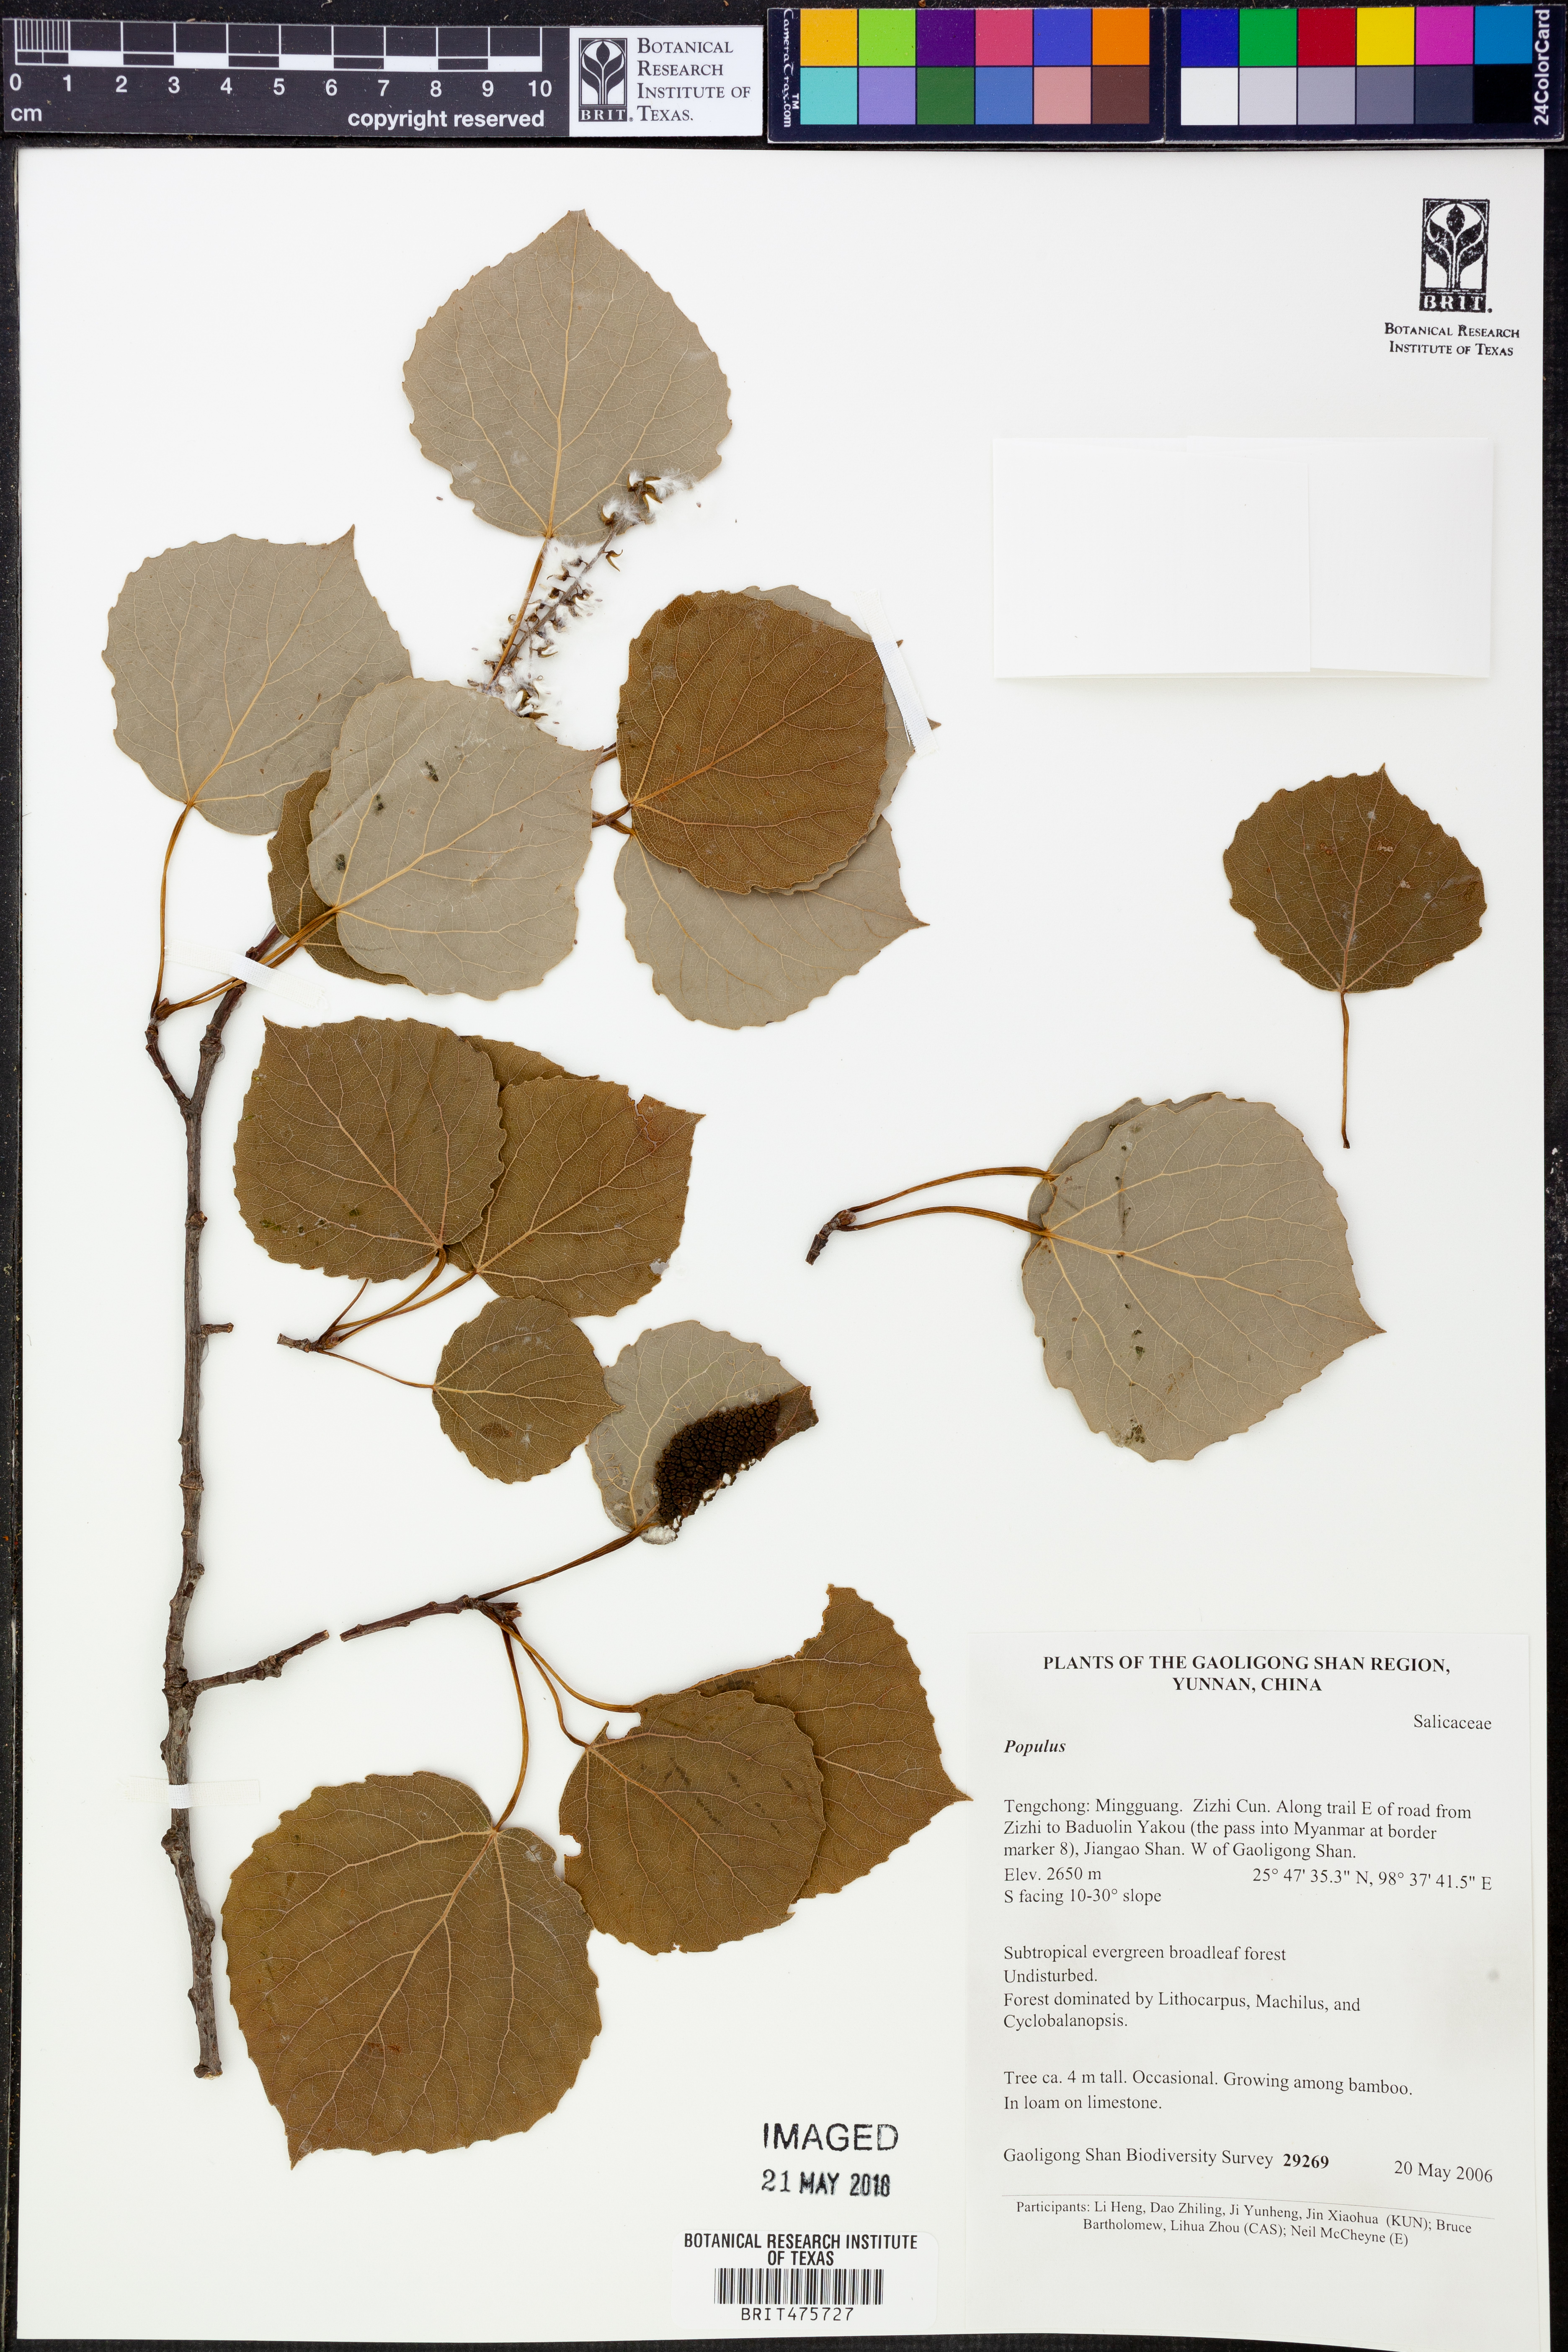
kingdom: Plantae
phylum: Tracheophyta
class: Magnoliopsida
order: Malpighiales
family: Salicaceae
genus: Populus
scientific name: Populus
